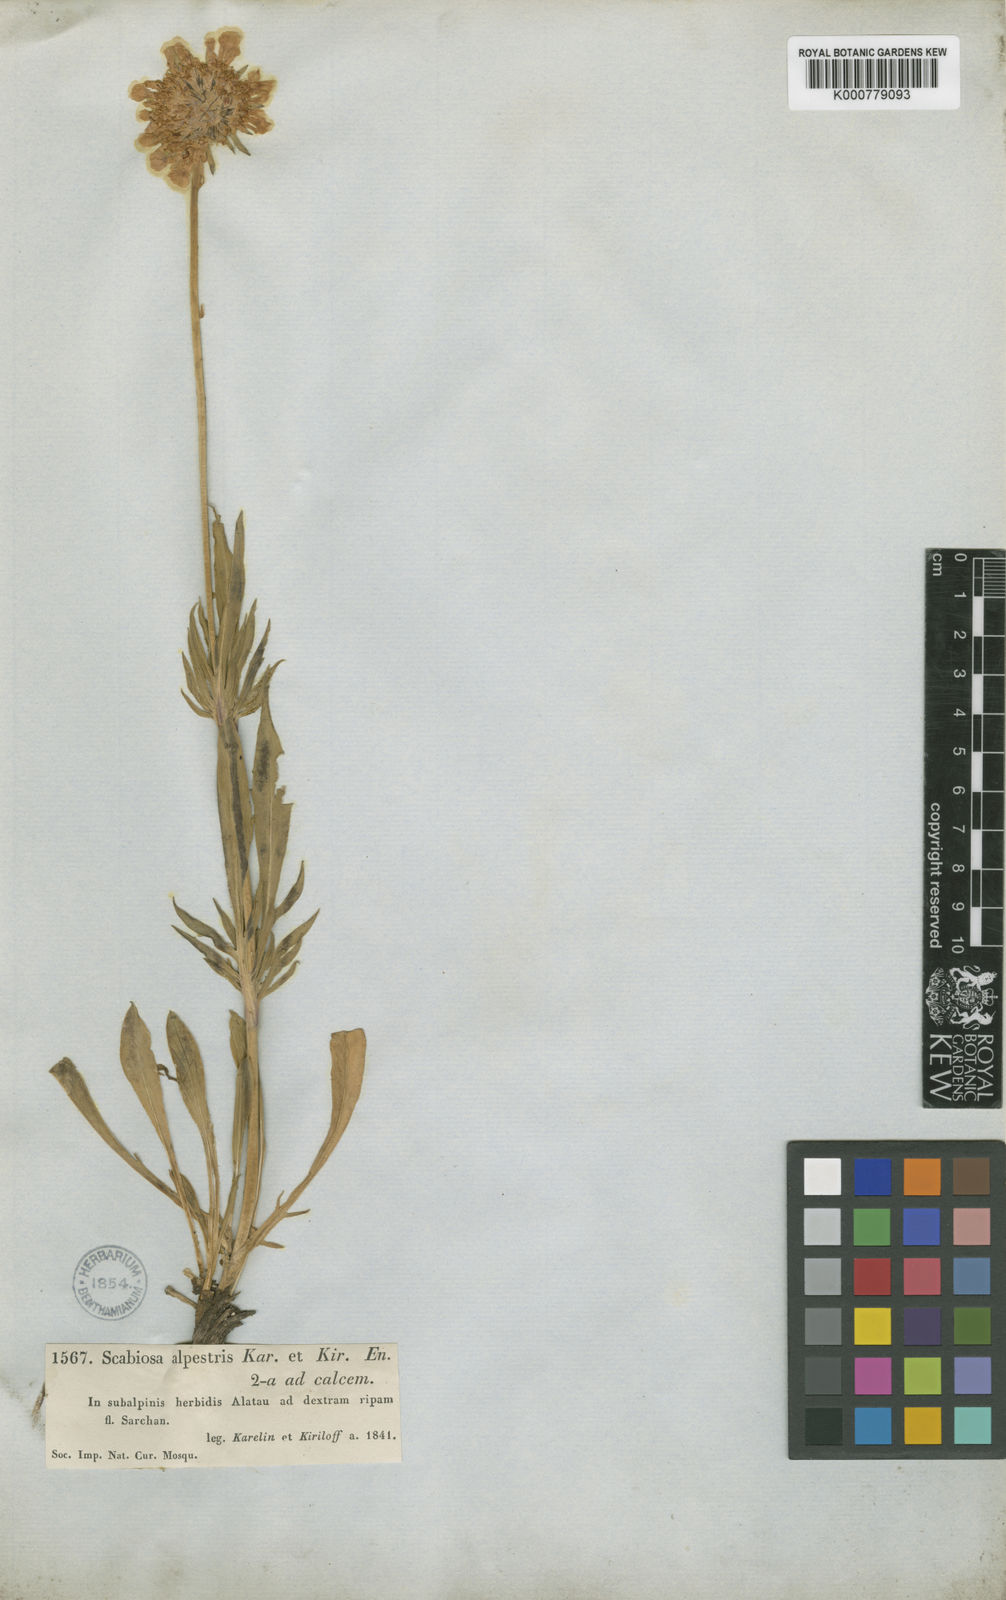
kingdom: Plantae
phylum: Tracheophyta
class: Magnoliopsida
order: Dipsacales
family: Caprifoliaceae
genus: Lomelosia
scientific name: Lomelosia alpestris
